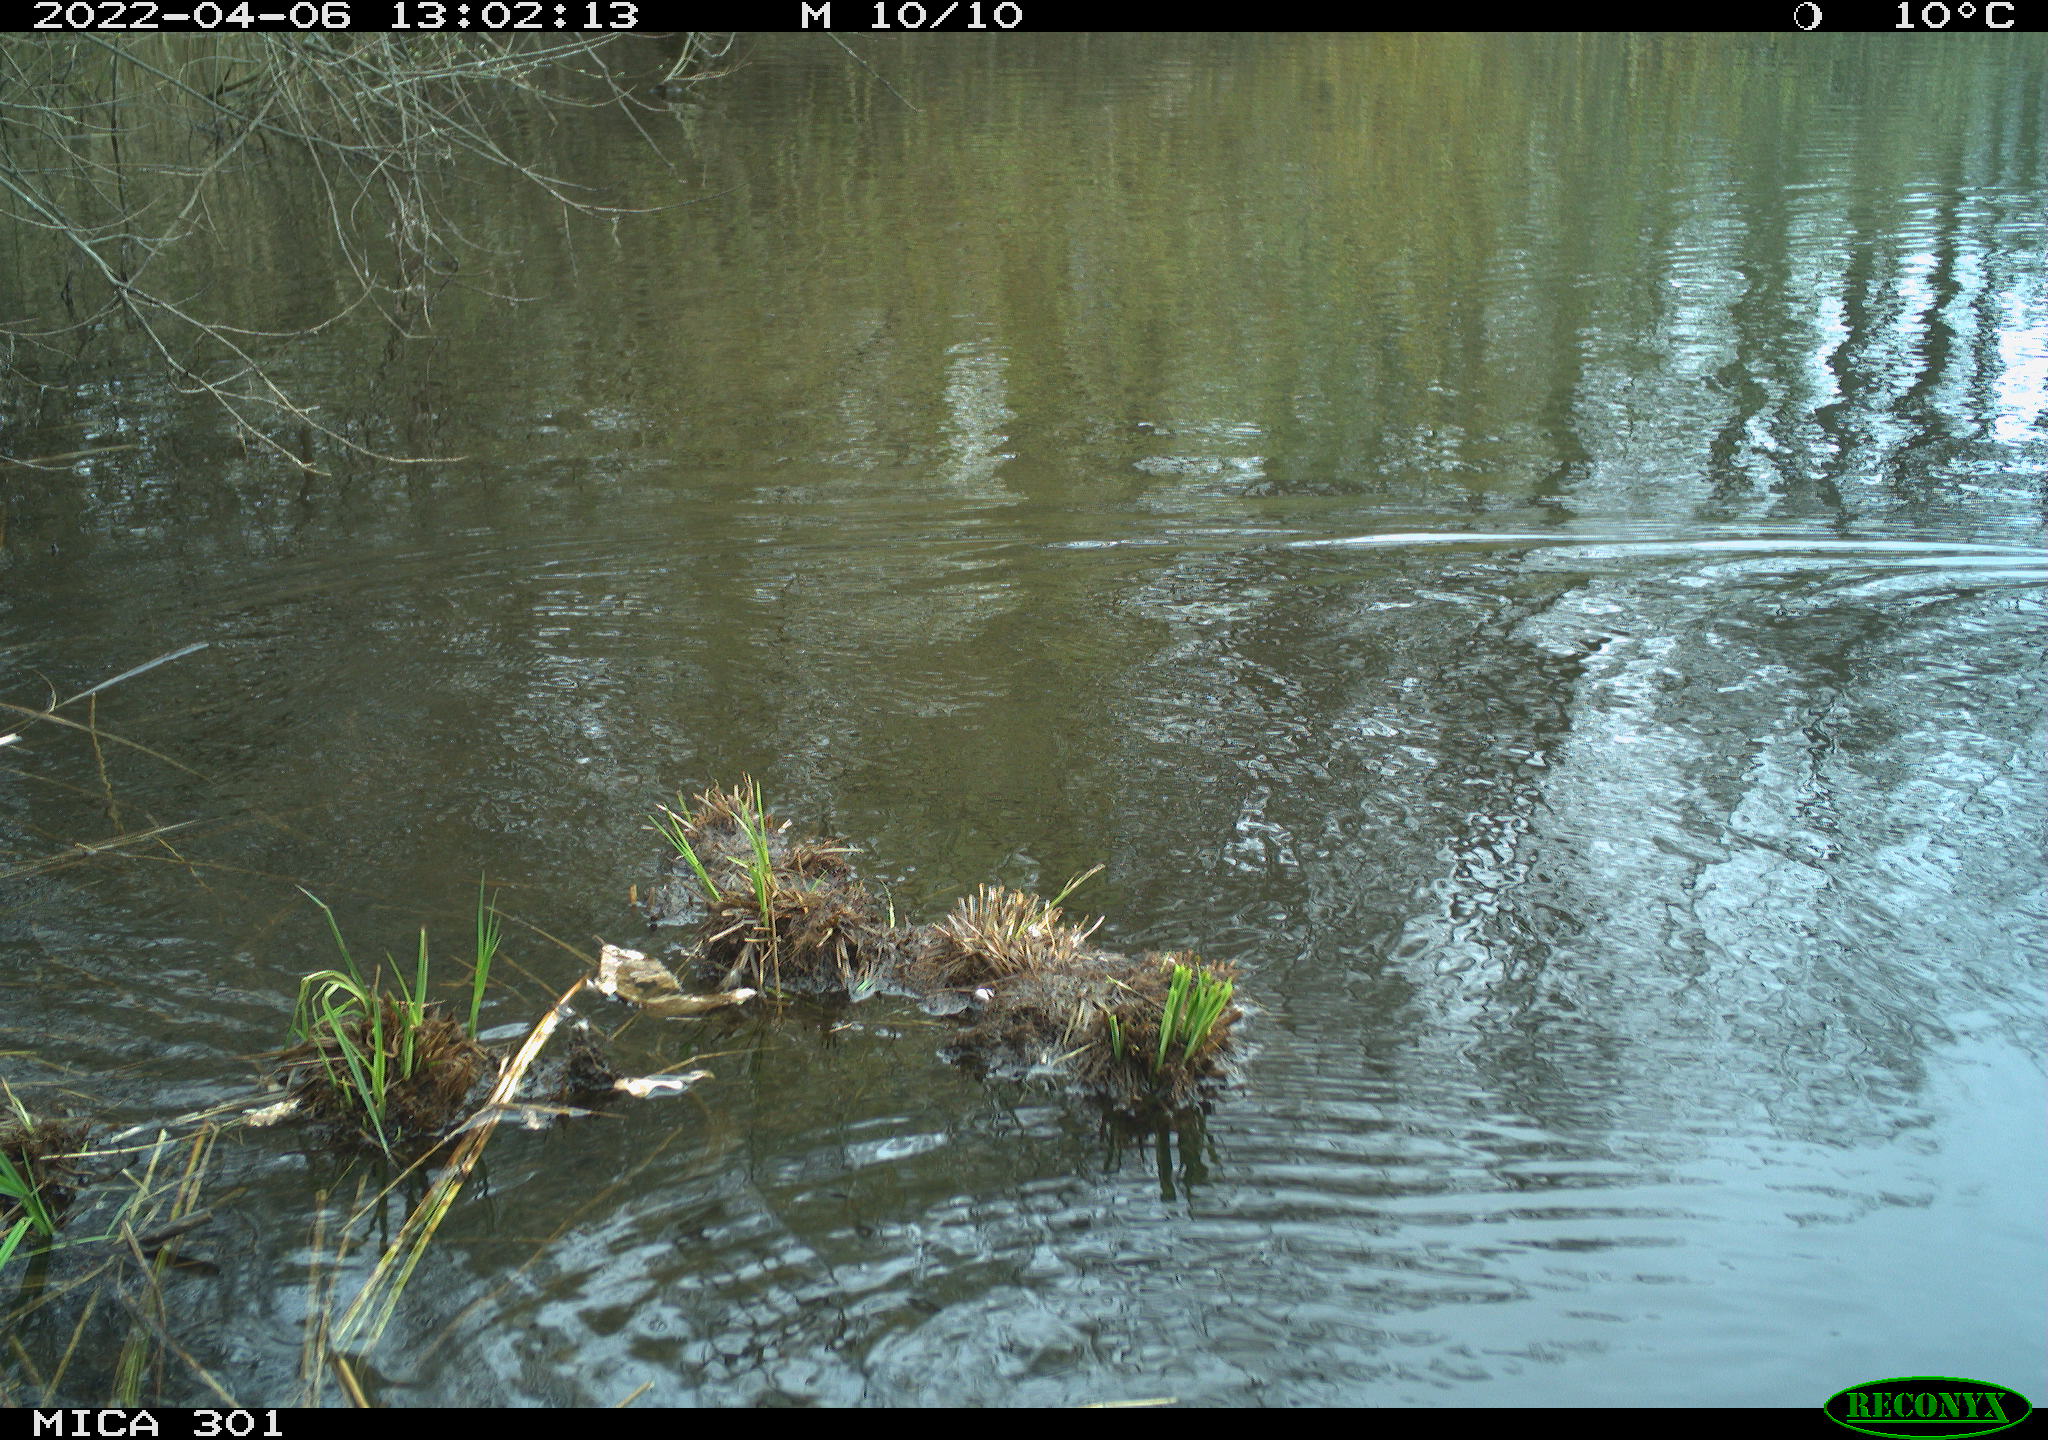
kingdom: Animalia
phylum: Chordata
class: Aves
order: Anseriformes
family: Anatidae
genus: Anas
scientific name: Anas platyrhynchos
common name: Mallard
